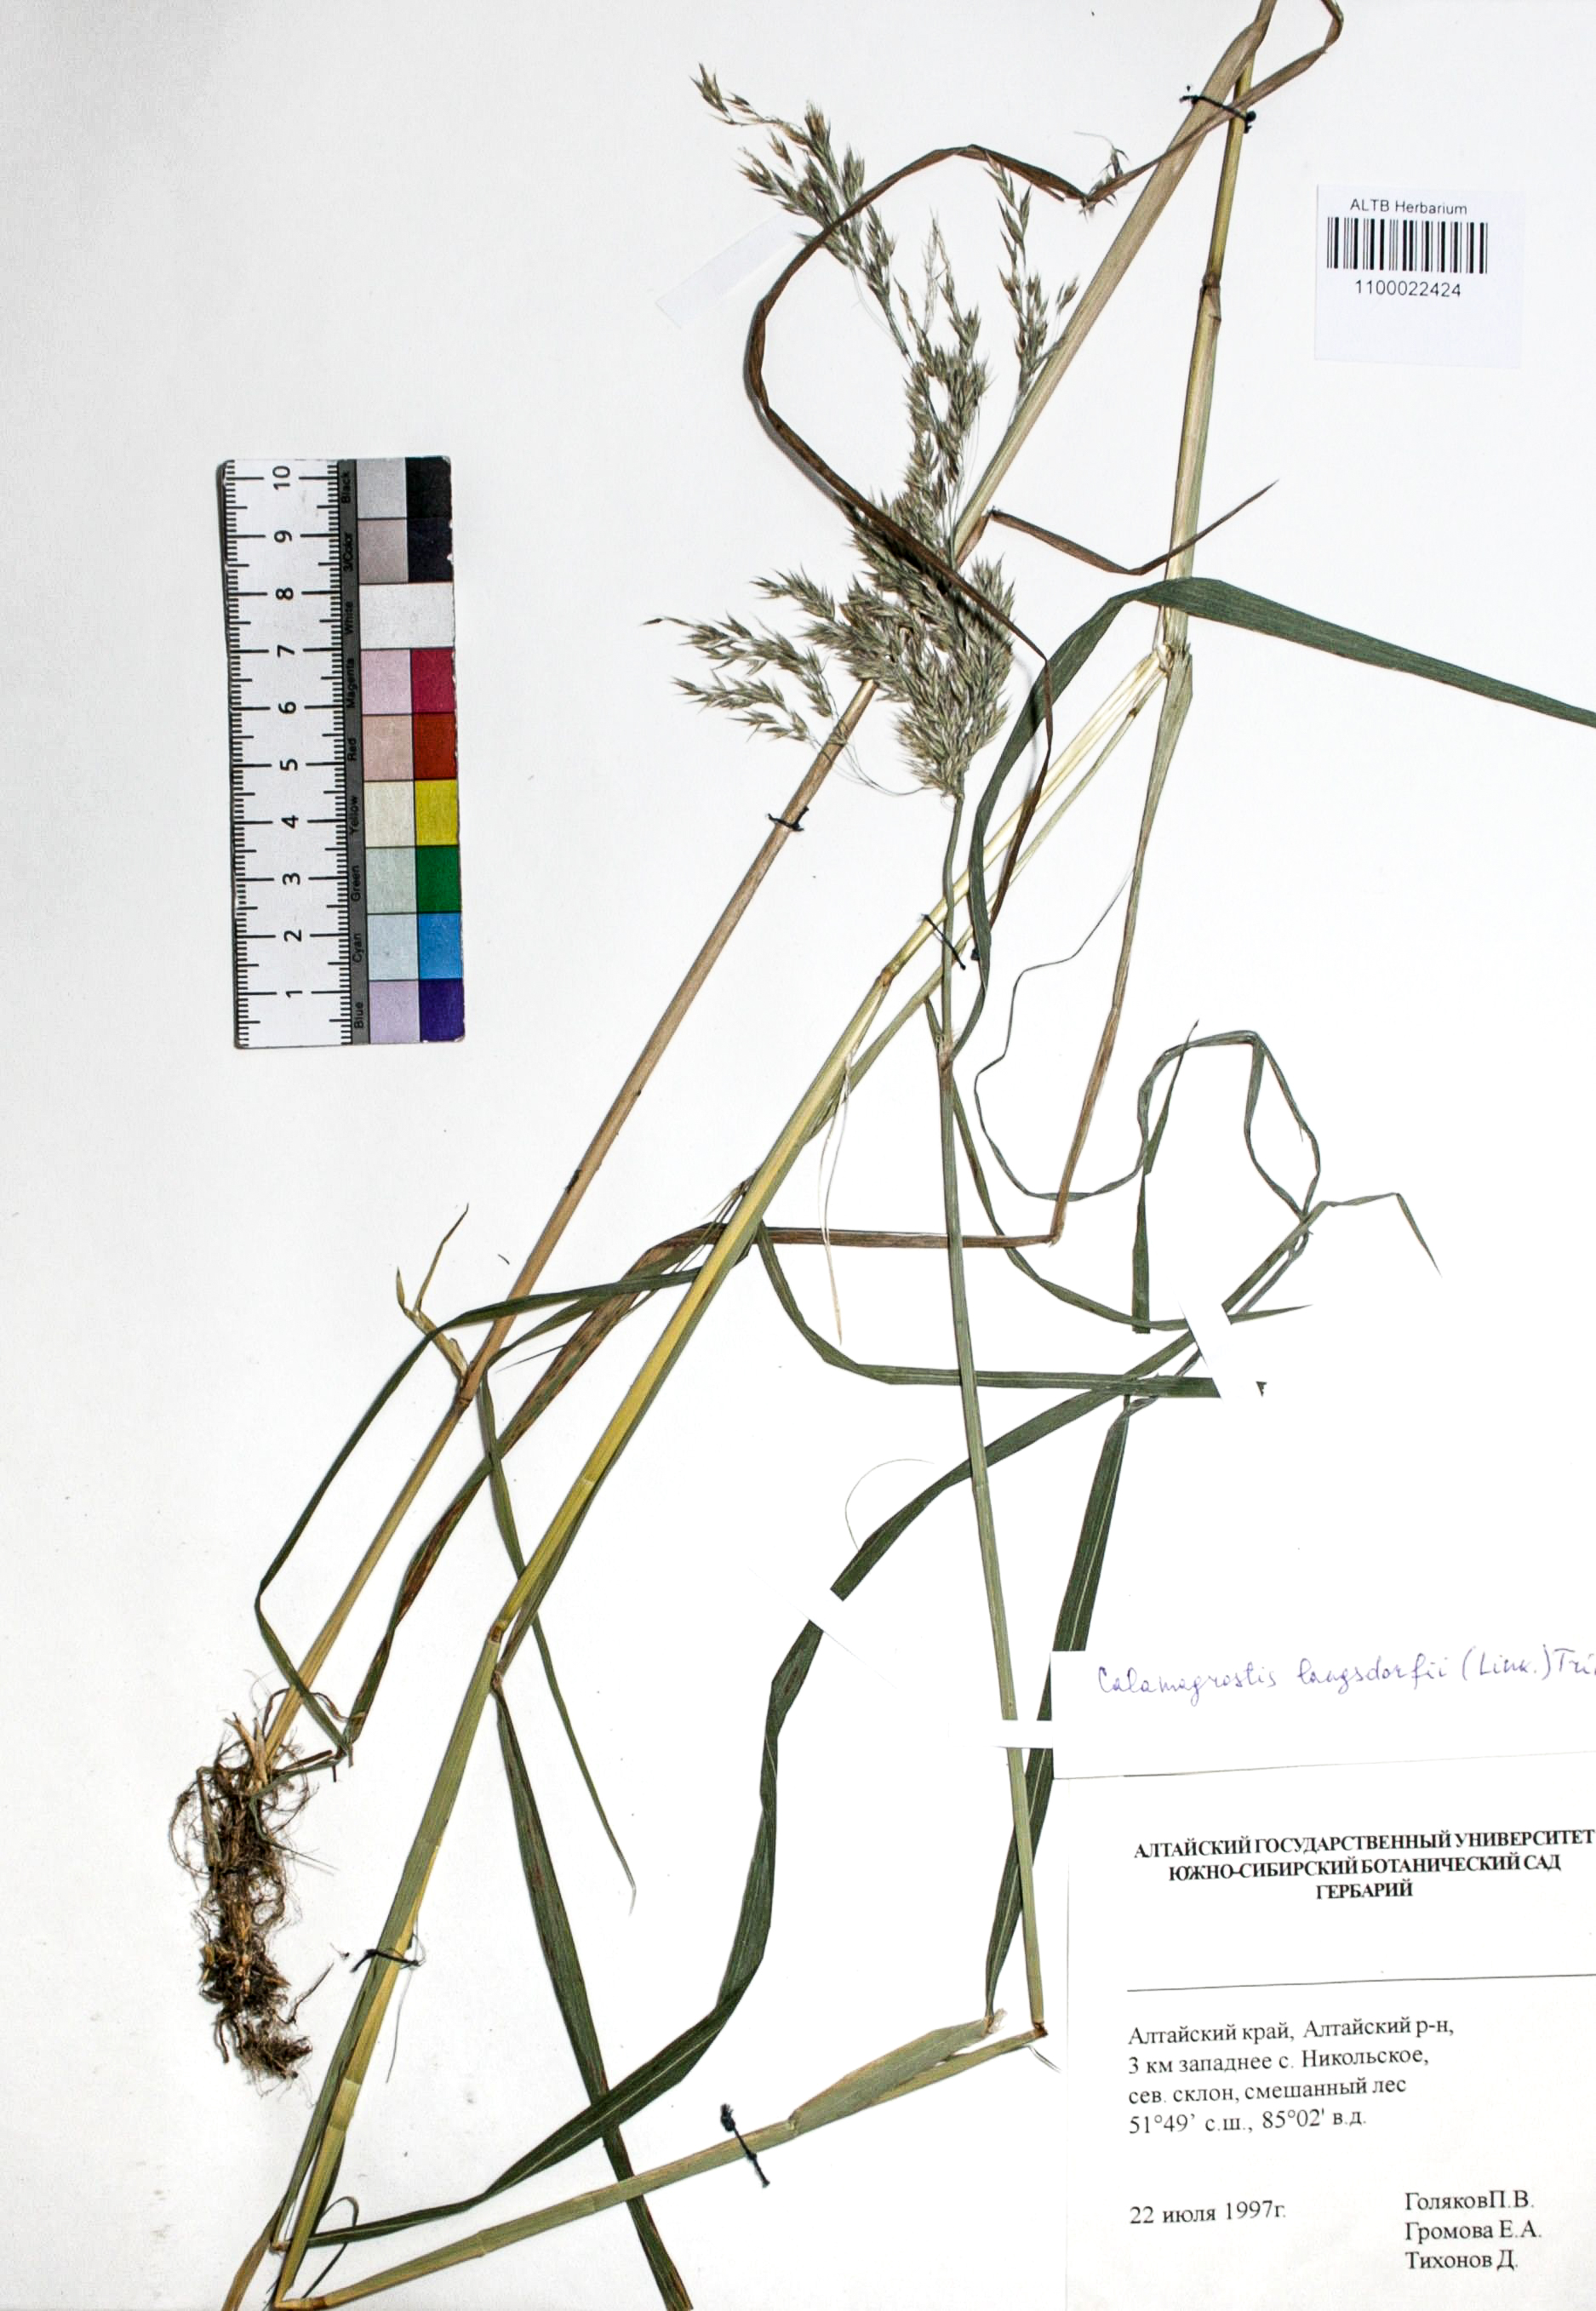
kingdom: Plantae
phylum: Tracheophyta
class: Liliopsida
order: Poales
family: Poaceae
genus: Calamagrostis
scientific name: Calamagrostis purpurea
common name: Scandinavian small-reed
